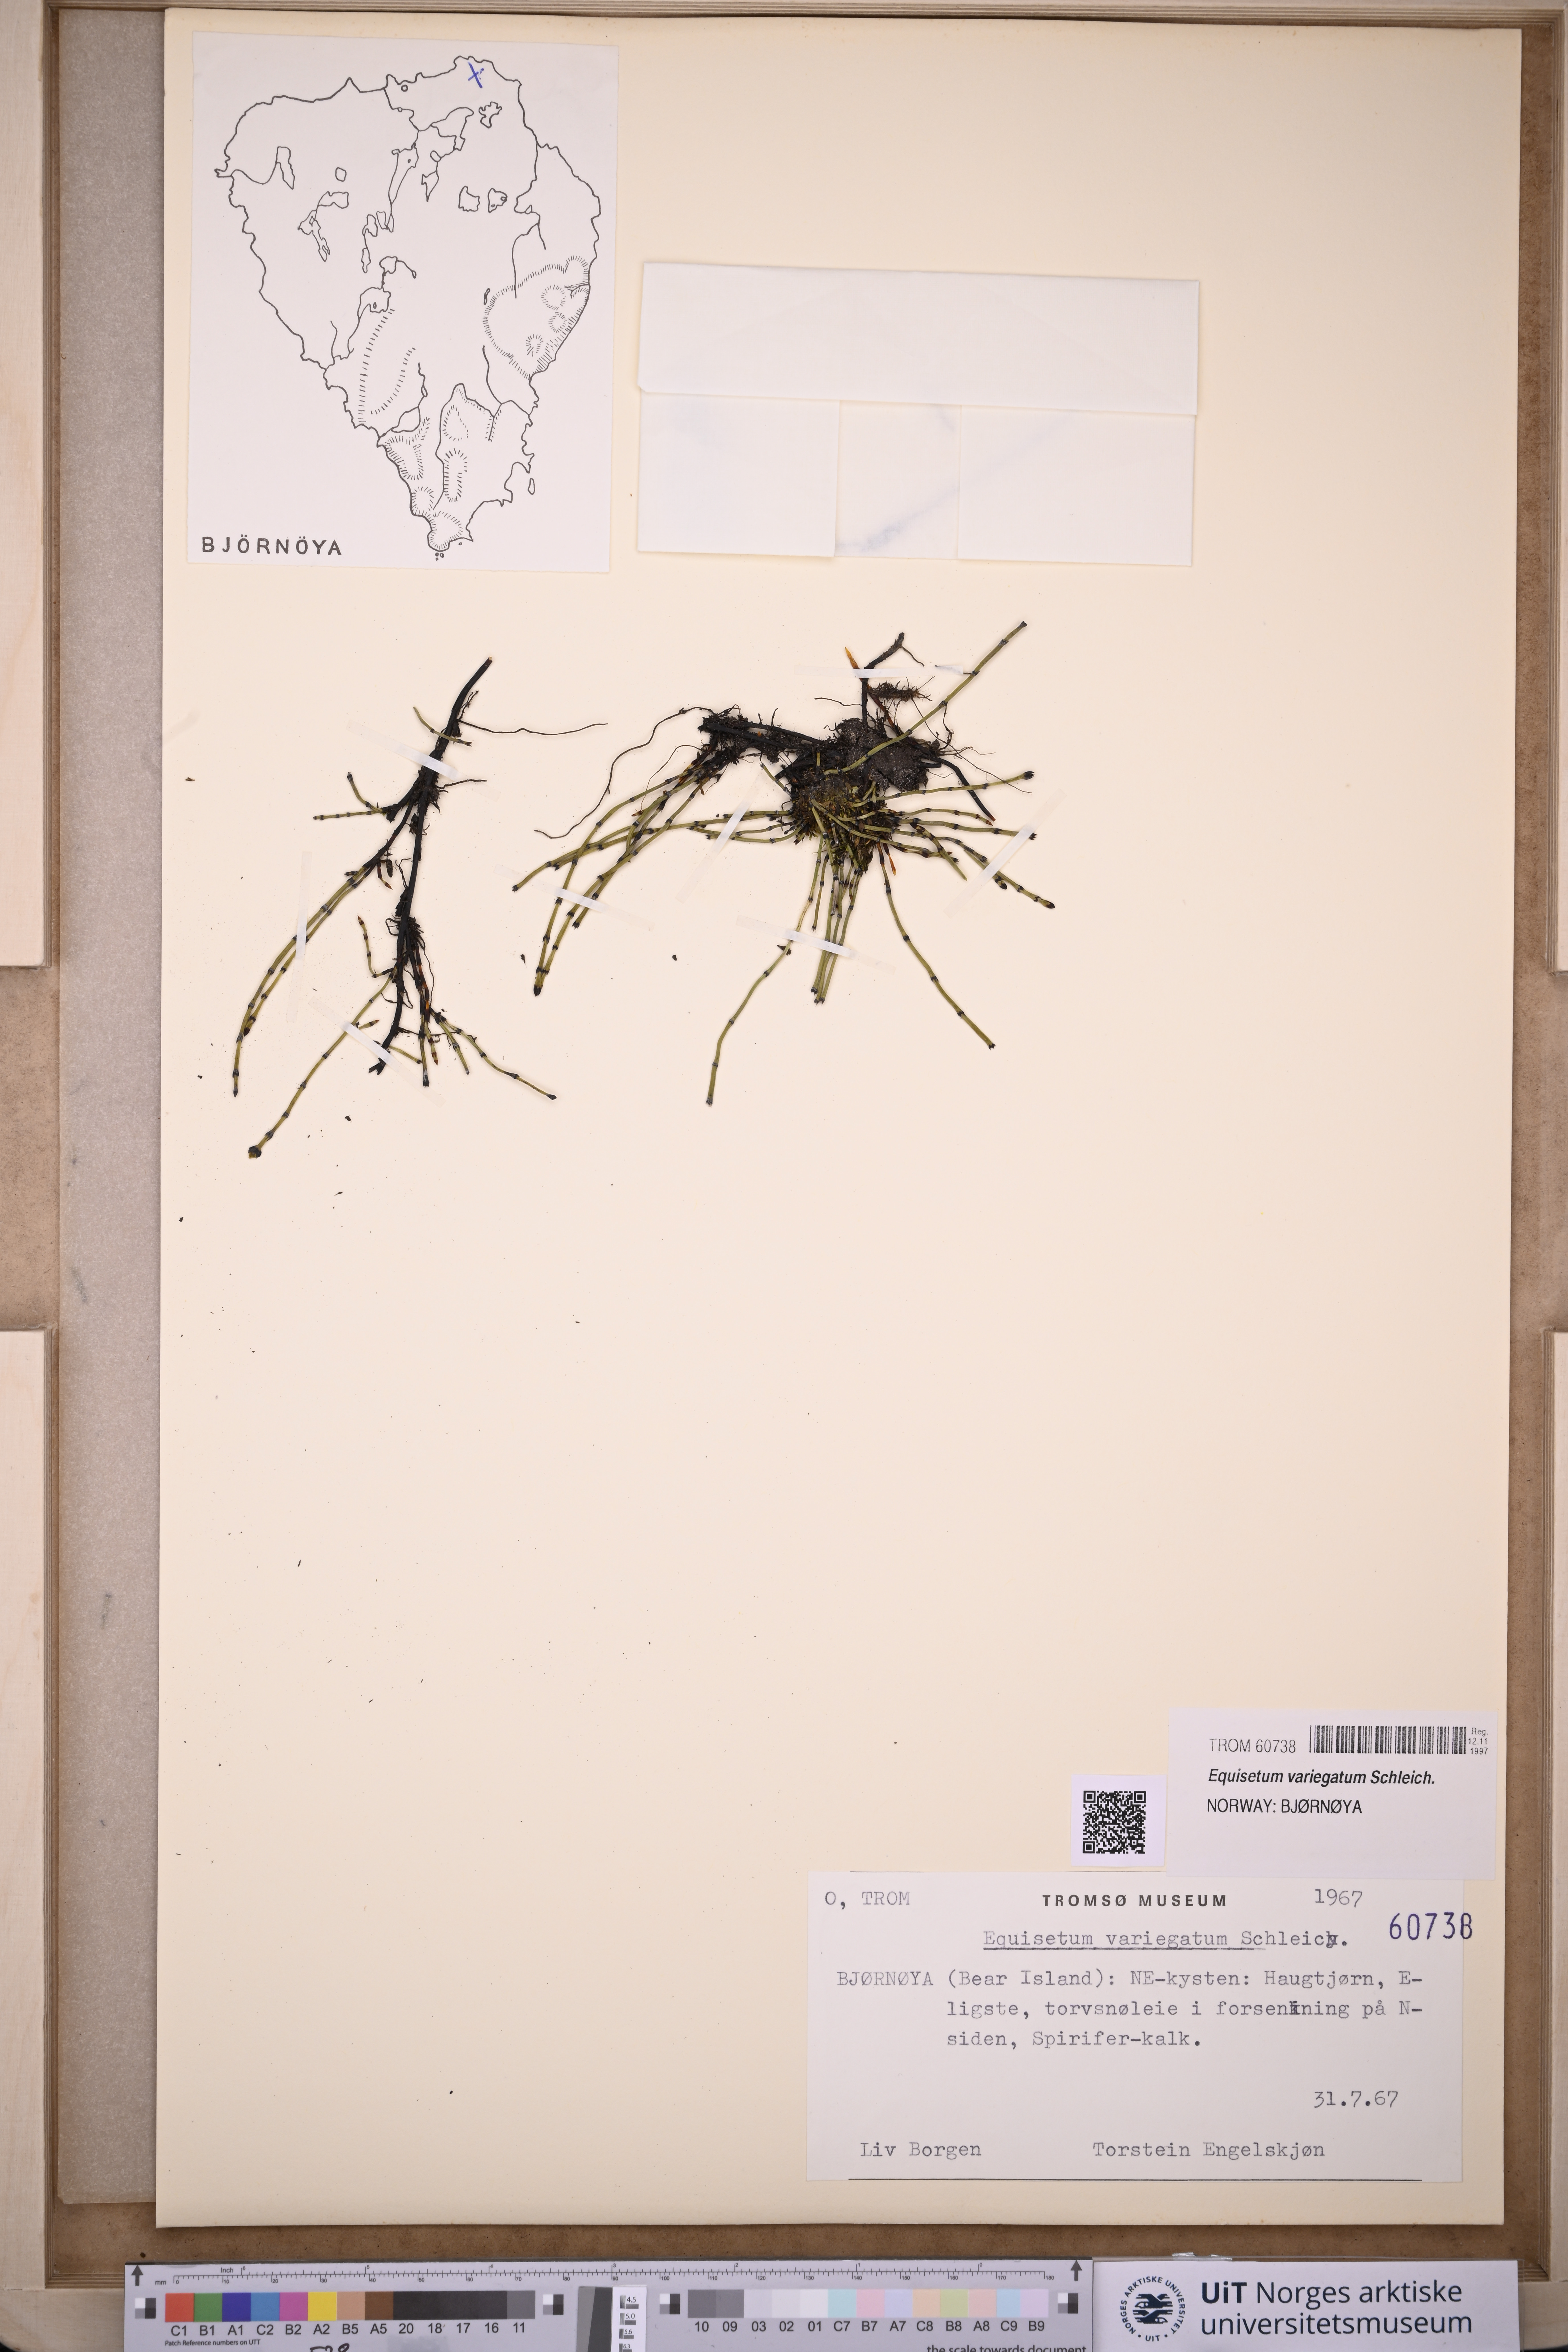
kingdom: Plantae
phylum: Tracheophyta
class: Polypodiopsida
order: Equisetales
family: Equisetaceae
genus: Equisetum
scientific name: Equisetum variegatum
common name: Variegated horsetail
